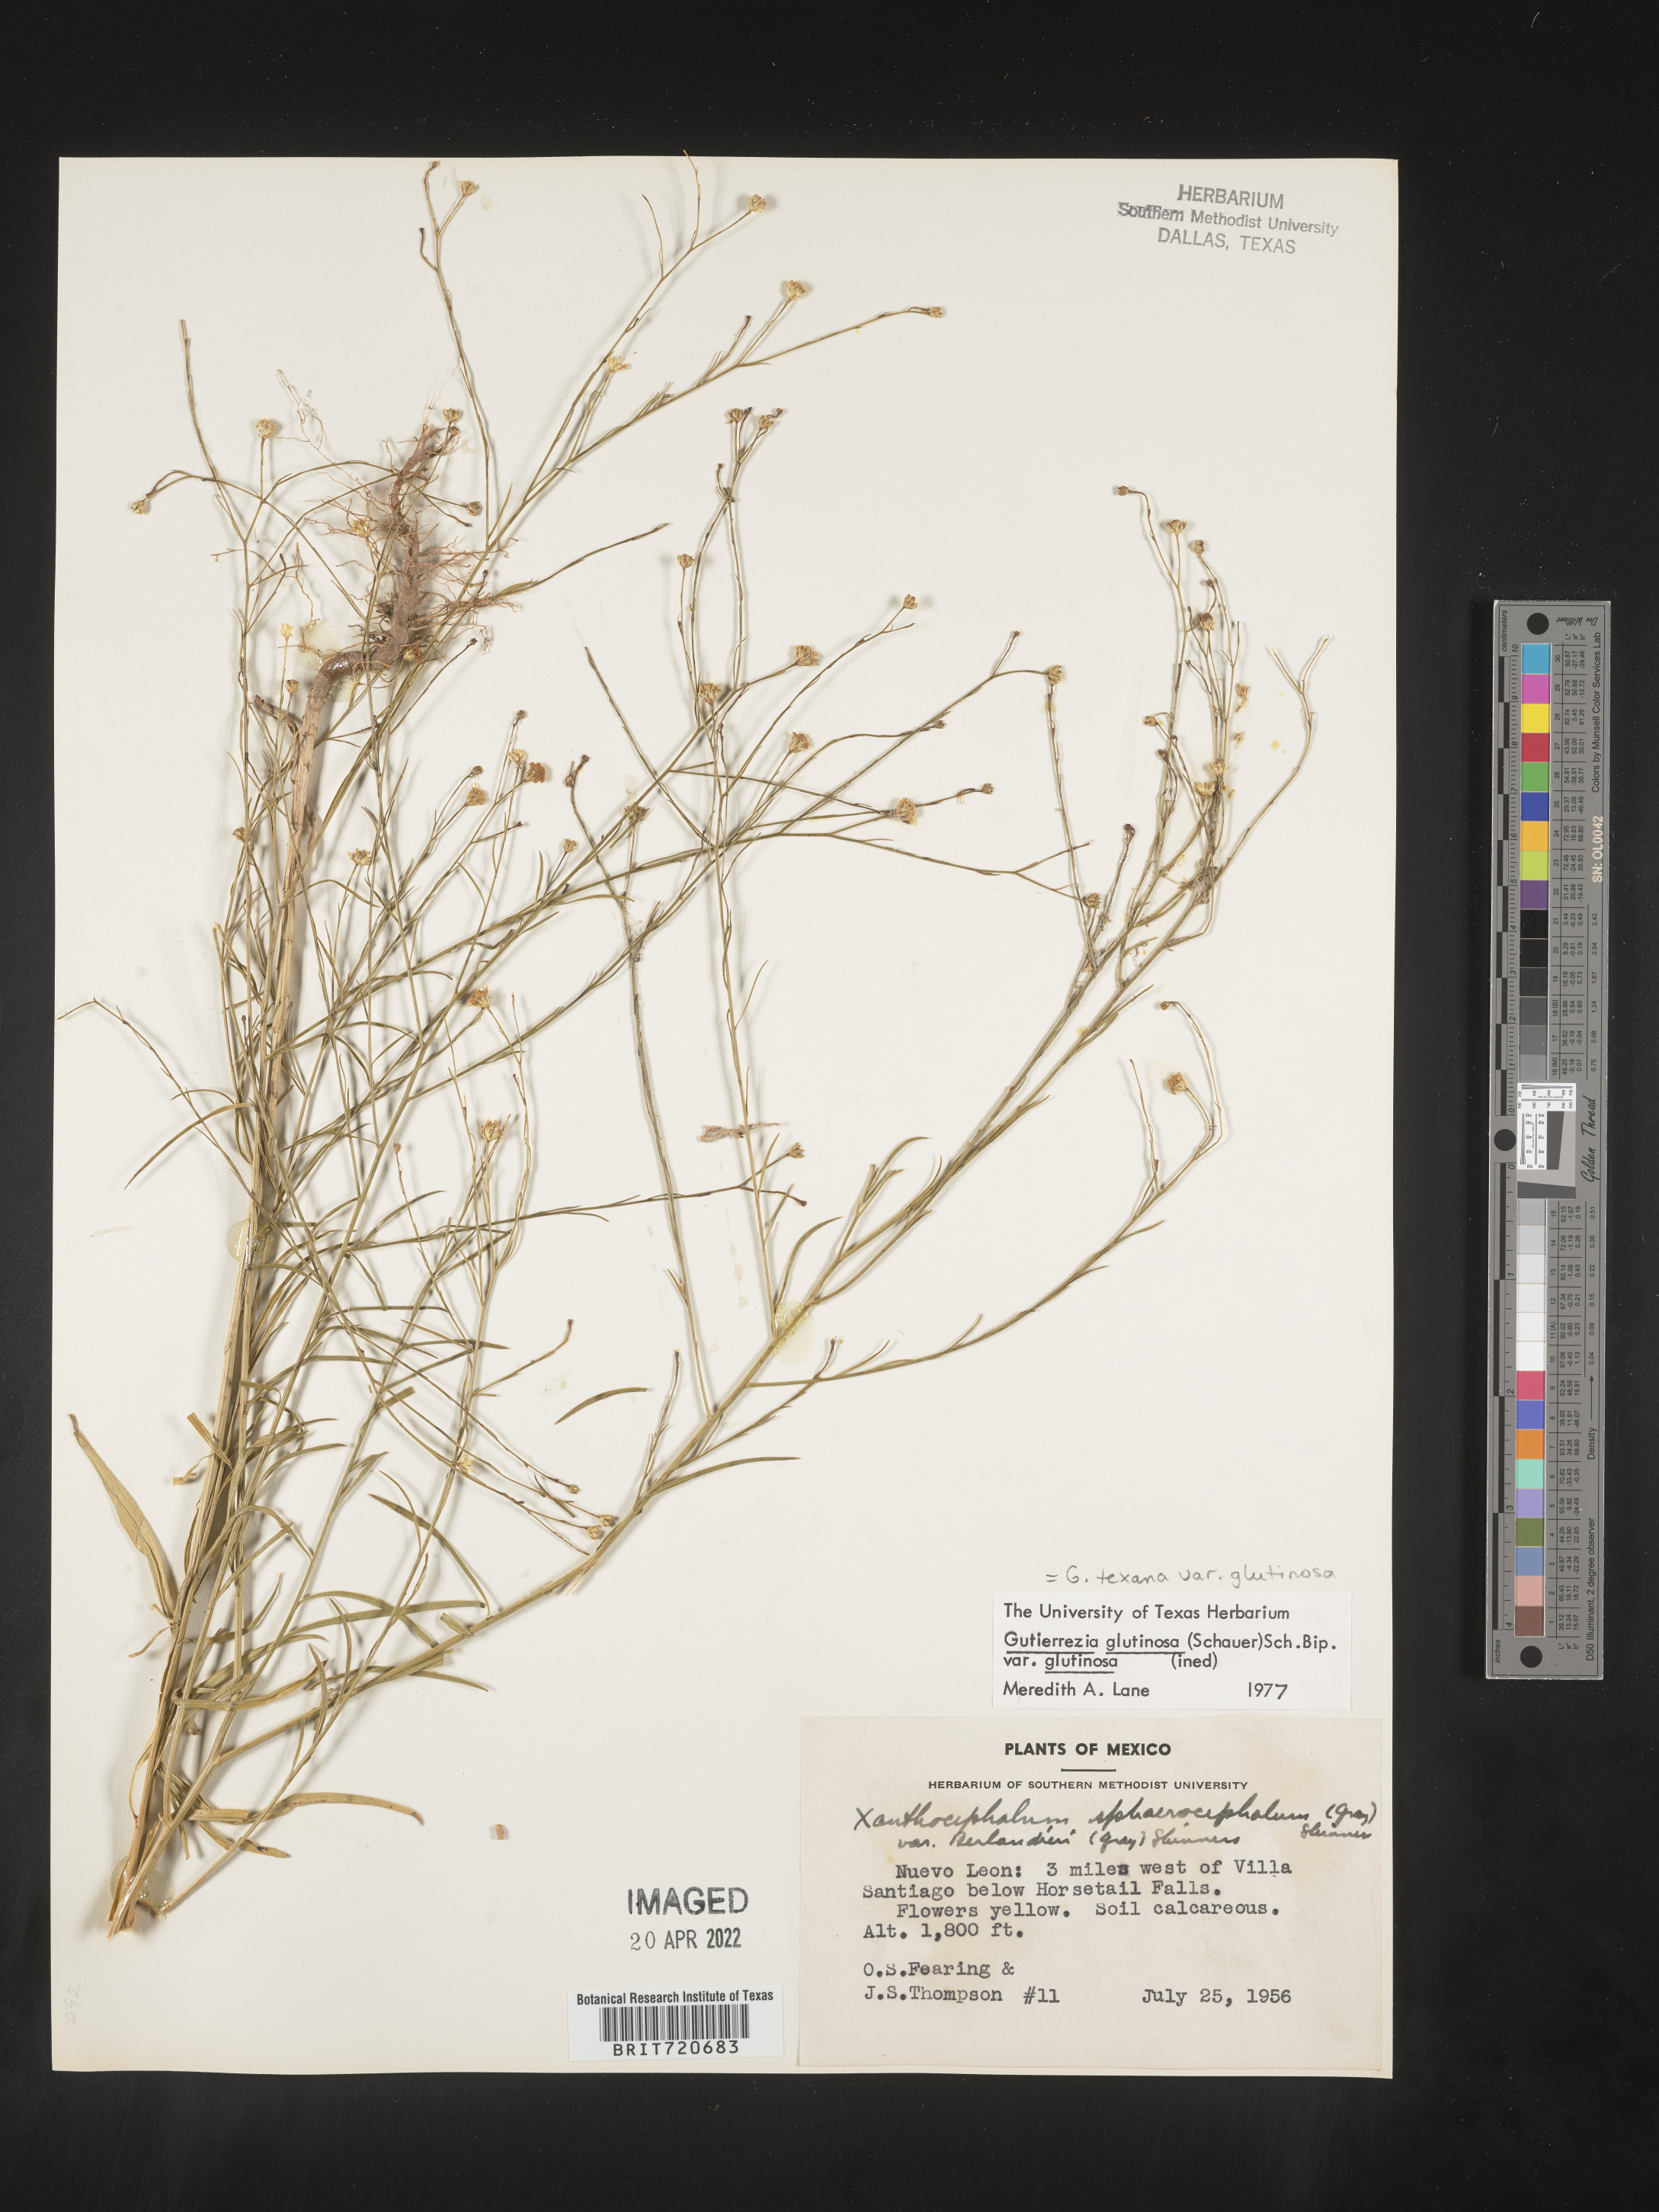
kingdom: Plantae
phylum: Tracheophyta
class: Magnoliopsida
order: Asterales
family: Asteraceae
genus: Gutierrezia
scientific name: Gutierrezia texana
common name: Texas snakeweed
